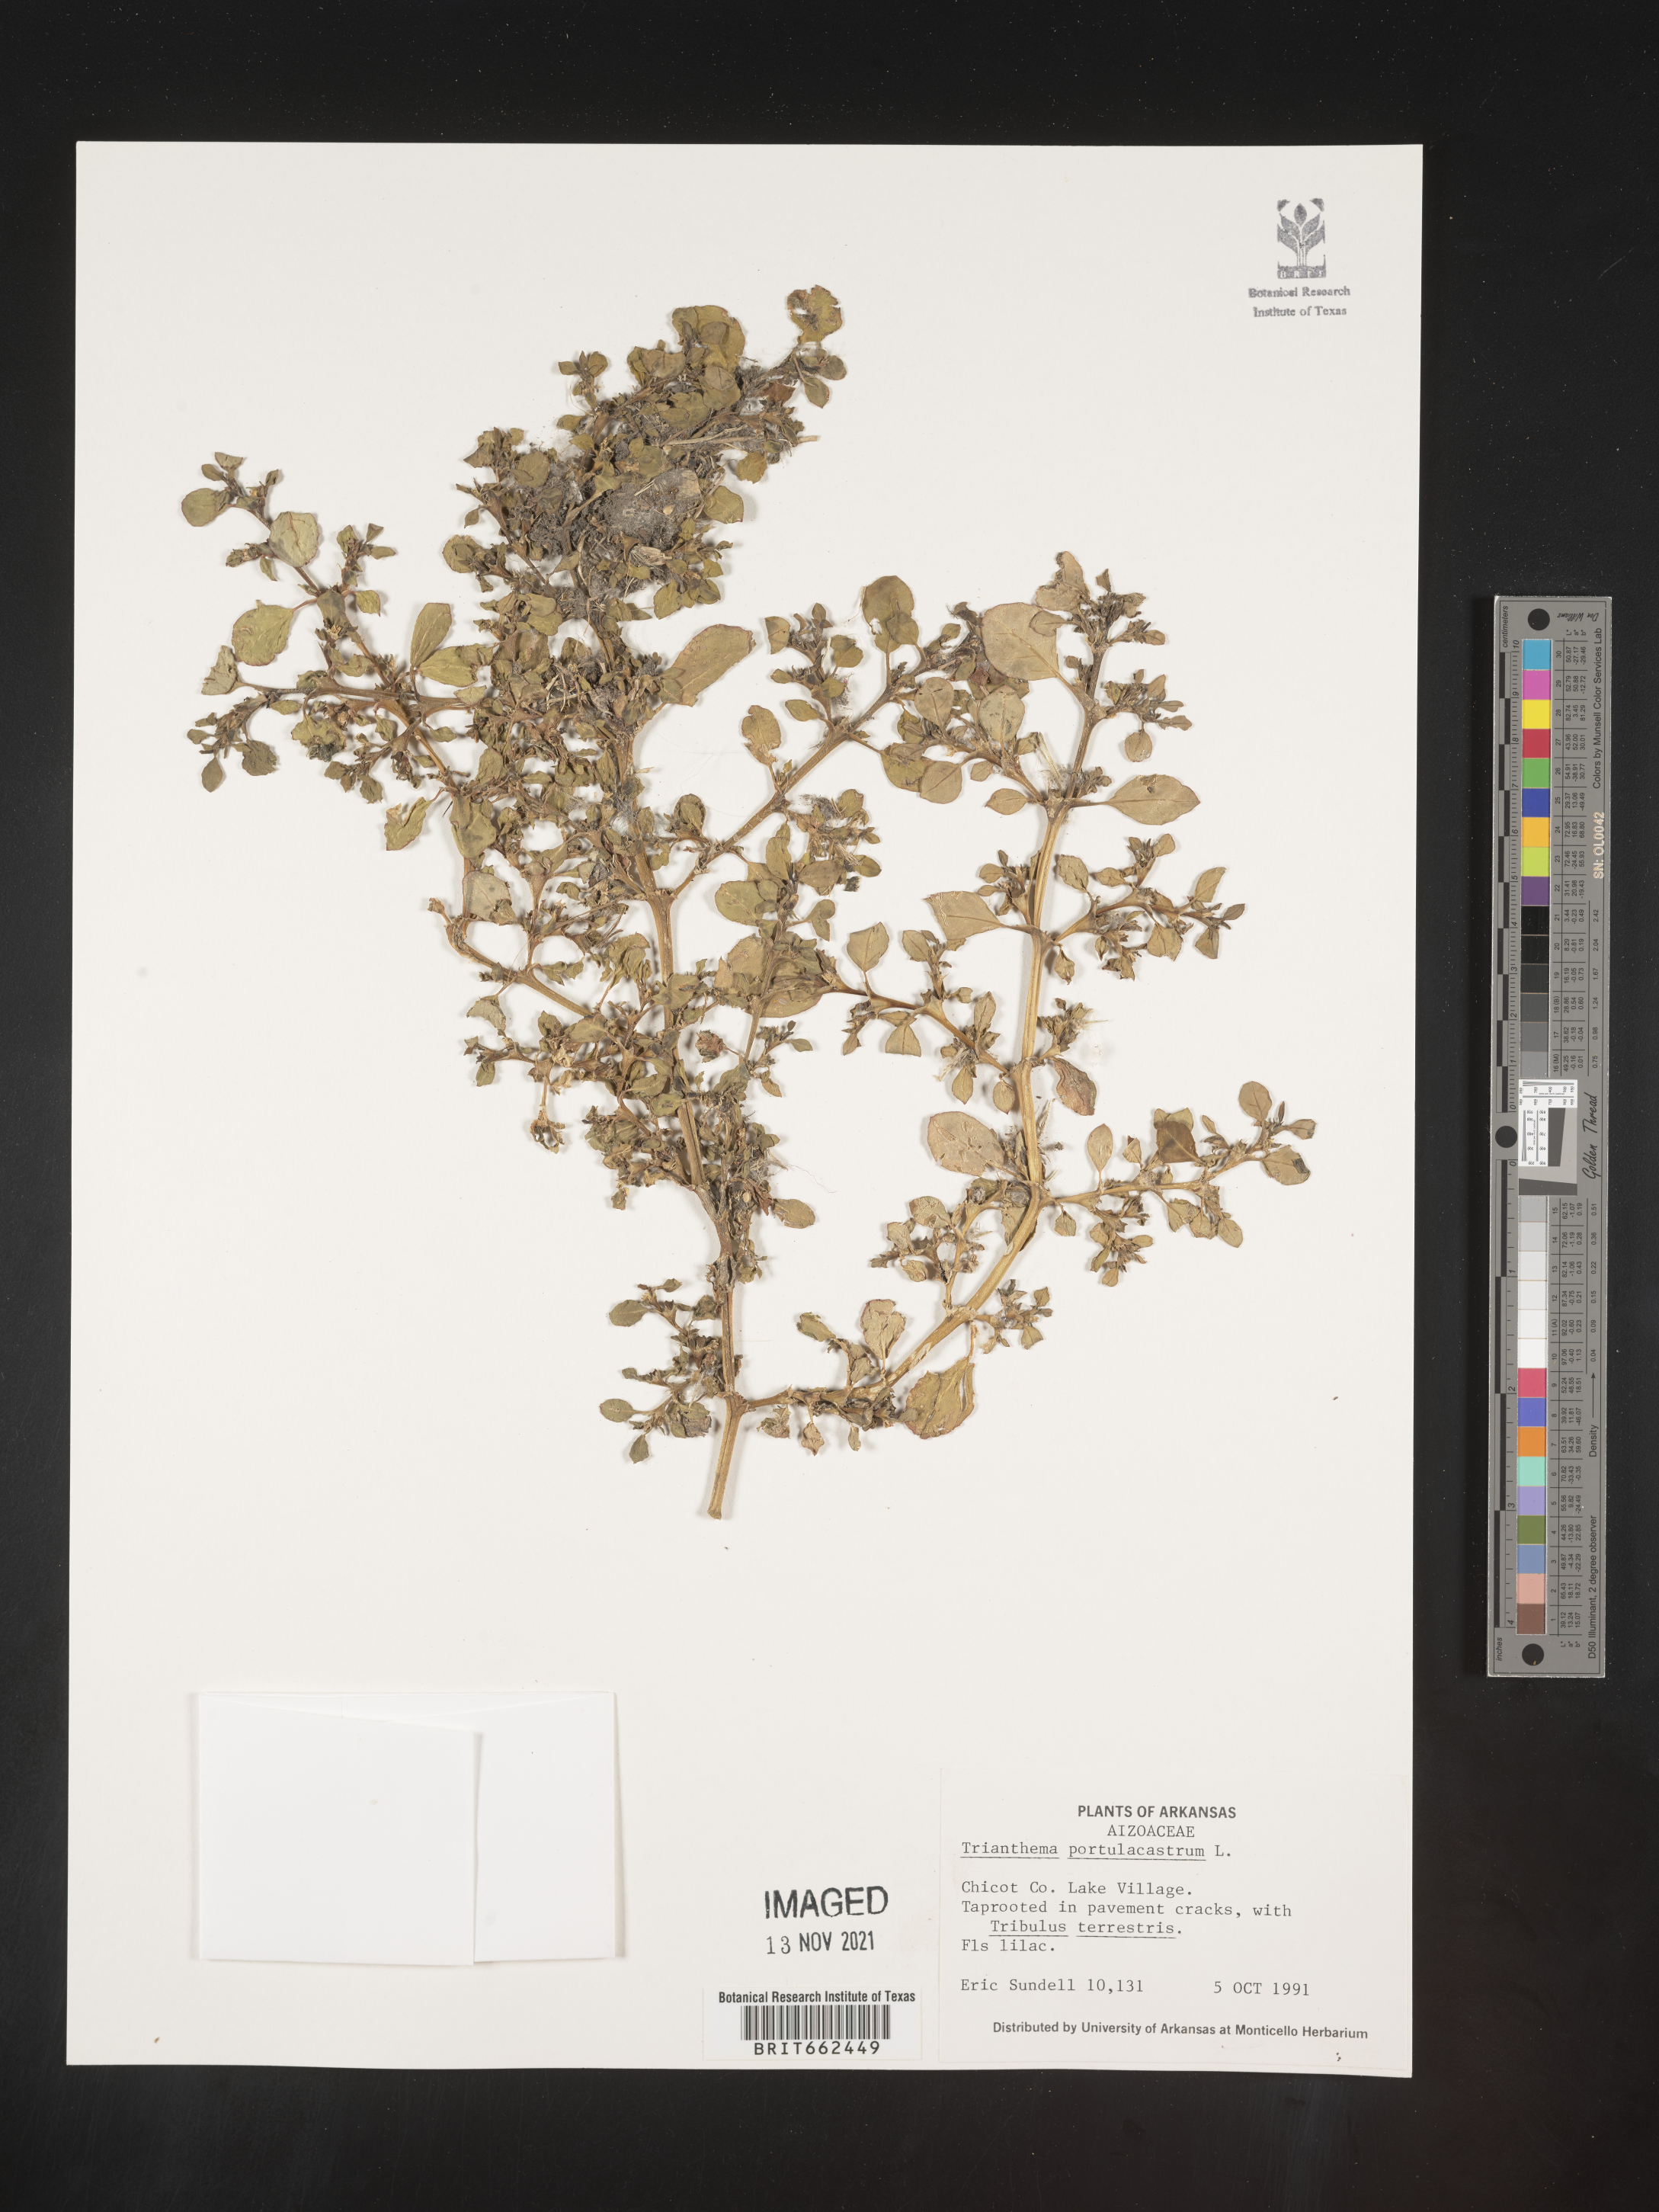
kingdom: Plantae
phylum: Tracheophyta
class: Magnoliopsida
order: Caryophyllales
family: Aizoaceae
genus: Trianthema
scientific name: Trianthema
